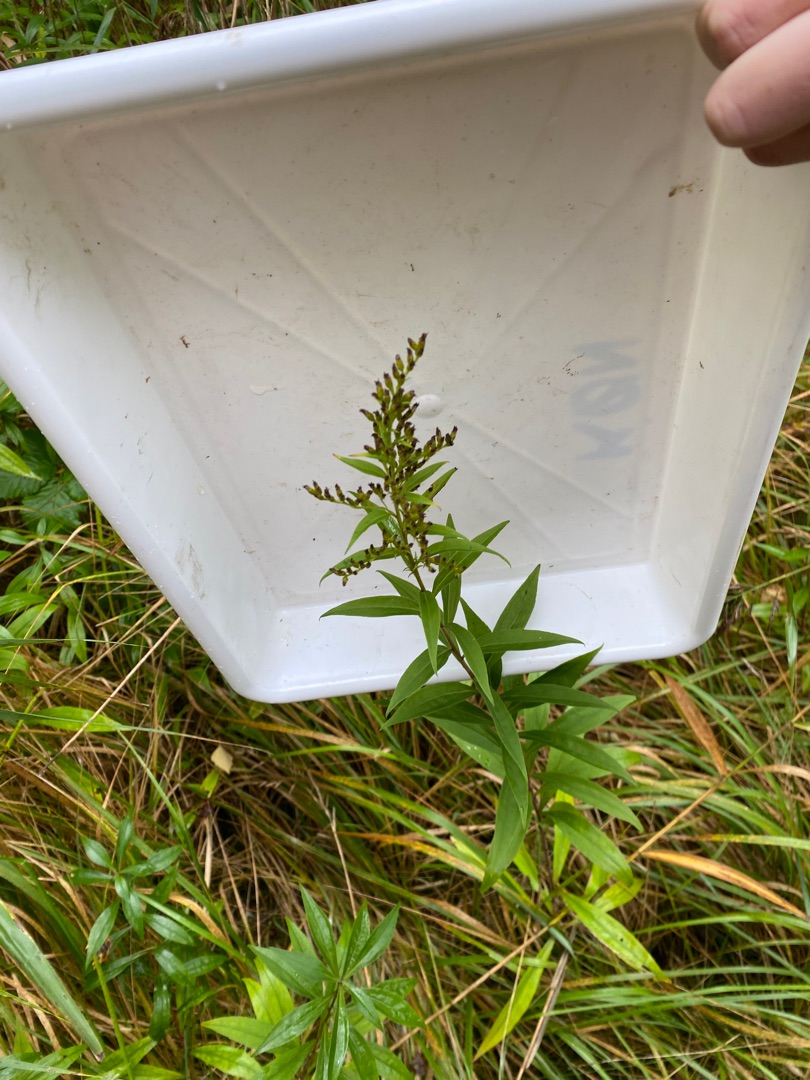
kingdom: Plantae
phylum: Tracheophyta
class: Magnoliopsida
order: Asterales
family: Asteraceae
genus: Solidago
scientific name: Solidago gigantea
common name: Sildig gyldenris
